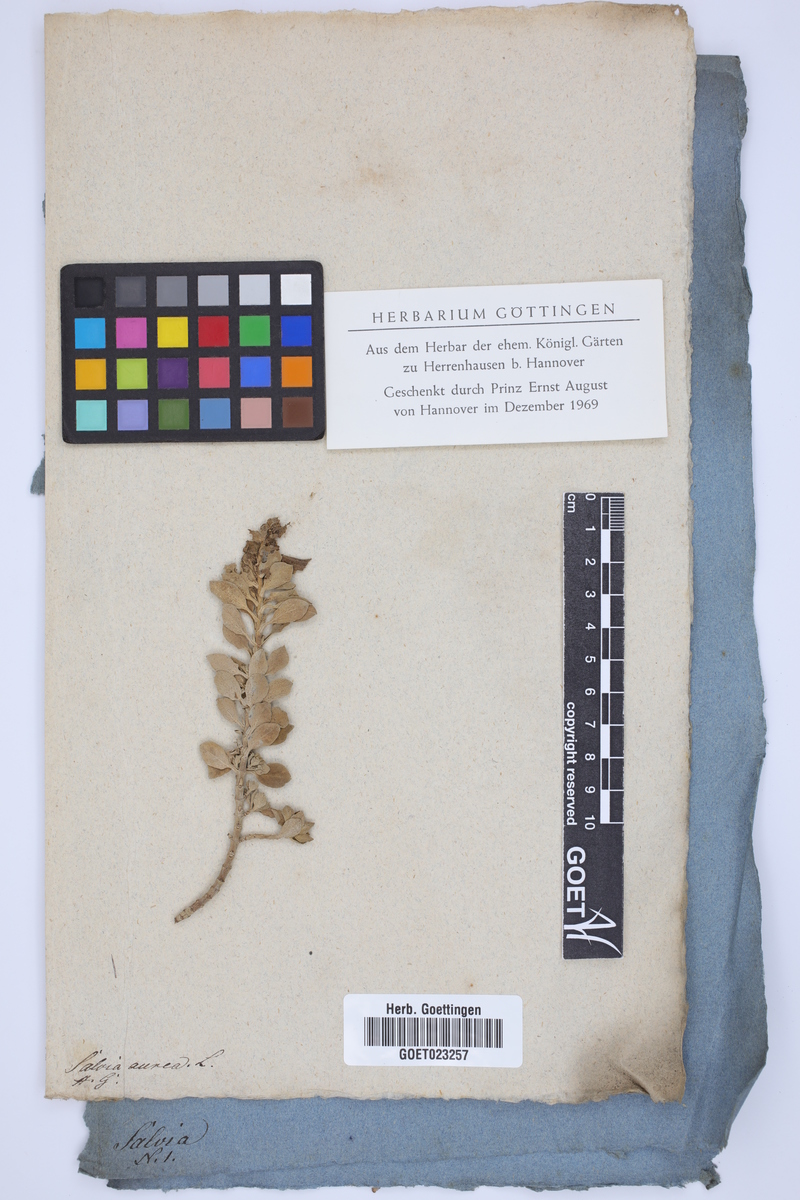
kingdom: Plantae
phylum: Tracheophyta
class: Magnoliopsida
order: Lamiales
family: Lamiaceae
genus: Salvia
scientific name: Salvia aurea
